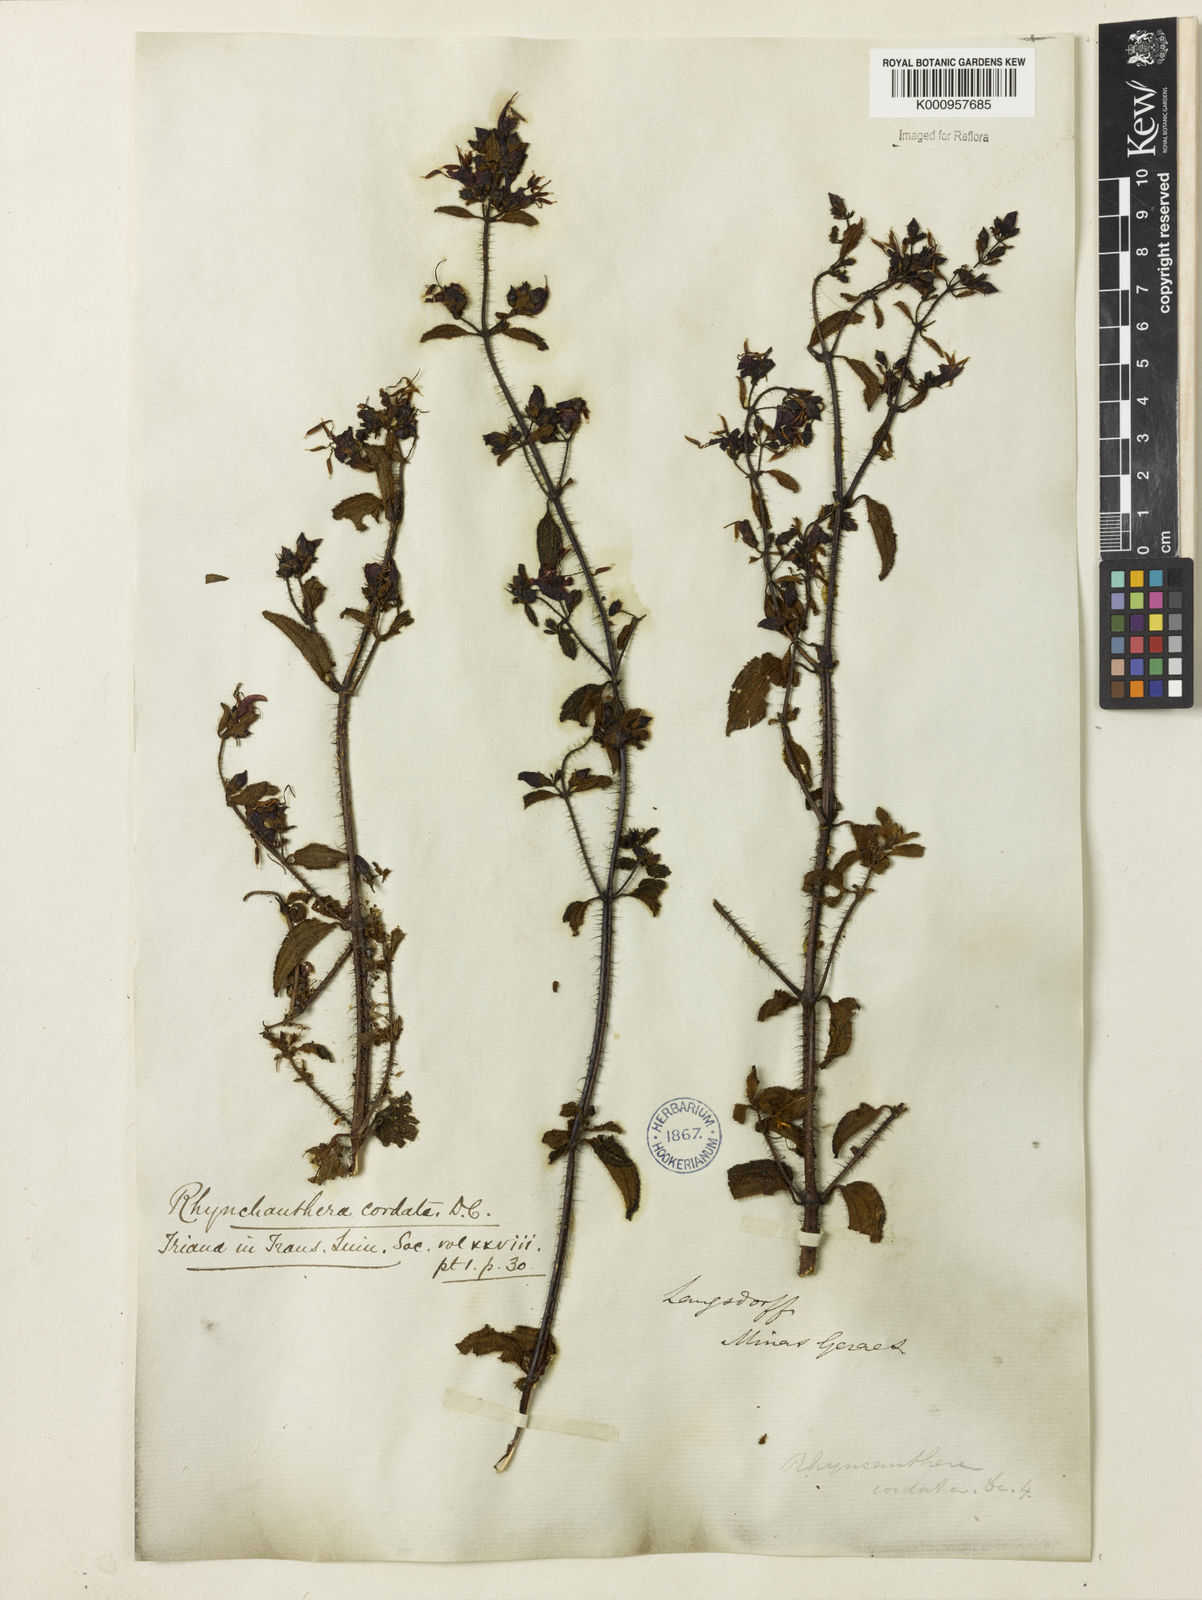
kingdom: Plantae
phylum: Tracheophyta
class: Magnoliopsida
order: Myrtales
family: Melastomataceae
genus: Rhynchanthera
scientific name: Rhynchanthera cordata
